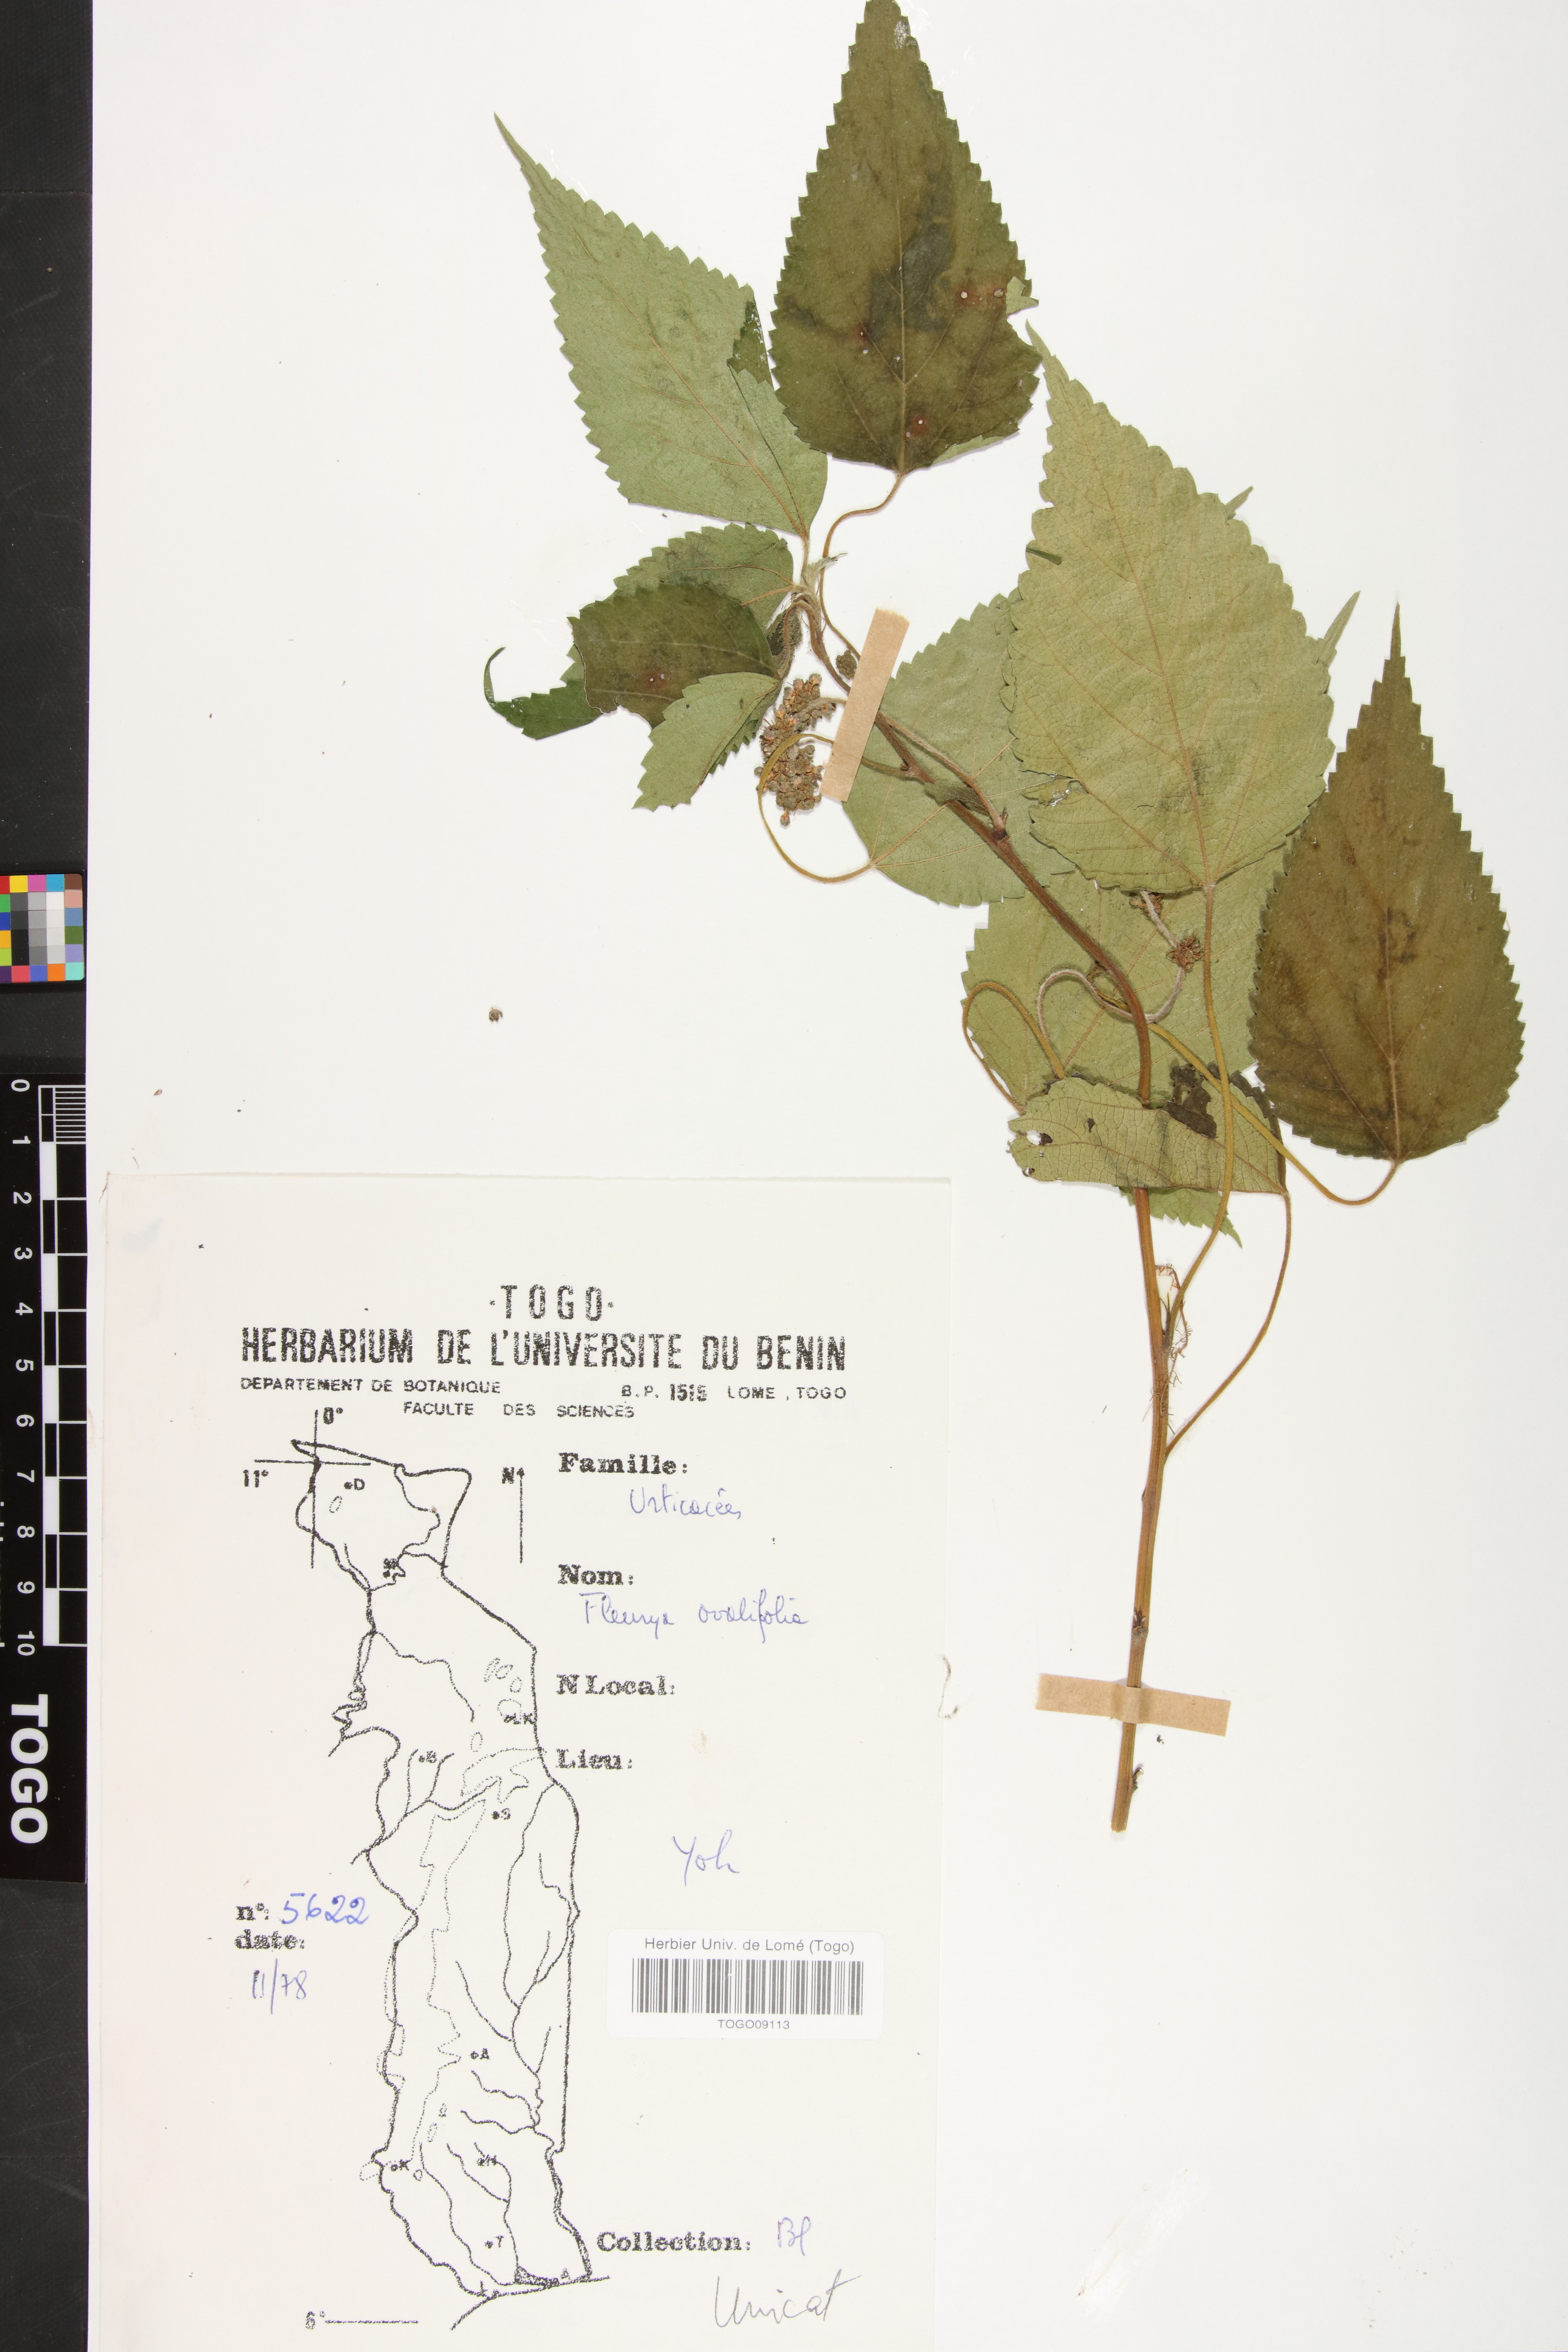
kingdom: Plantae
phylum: Tracheophyta
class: Magnoliopsida
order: Rosales
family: Urticaceae
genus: Laportea
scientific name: Laportea ovalifolia
